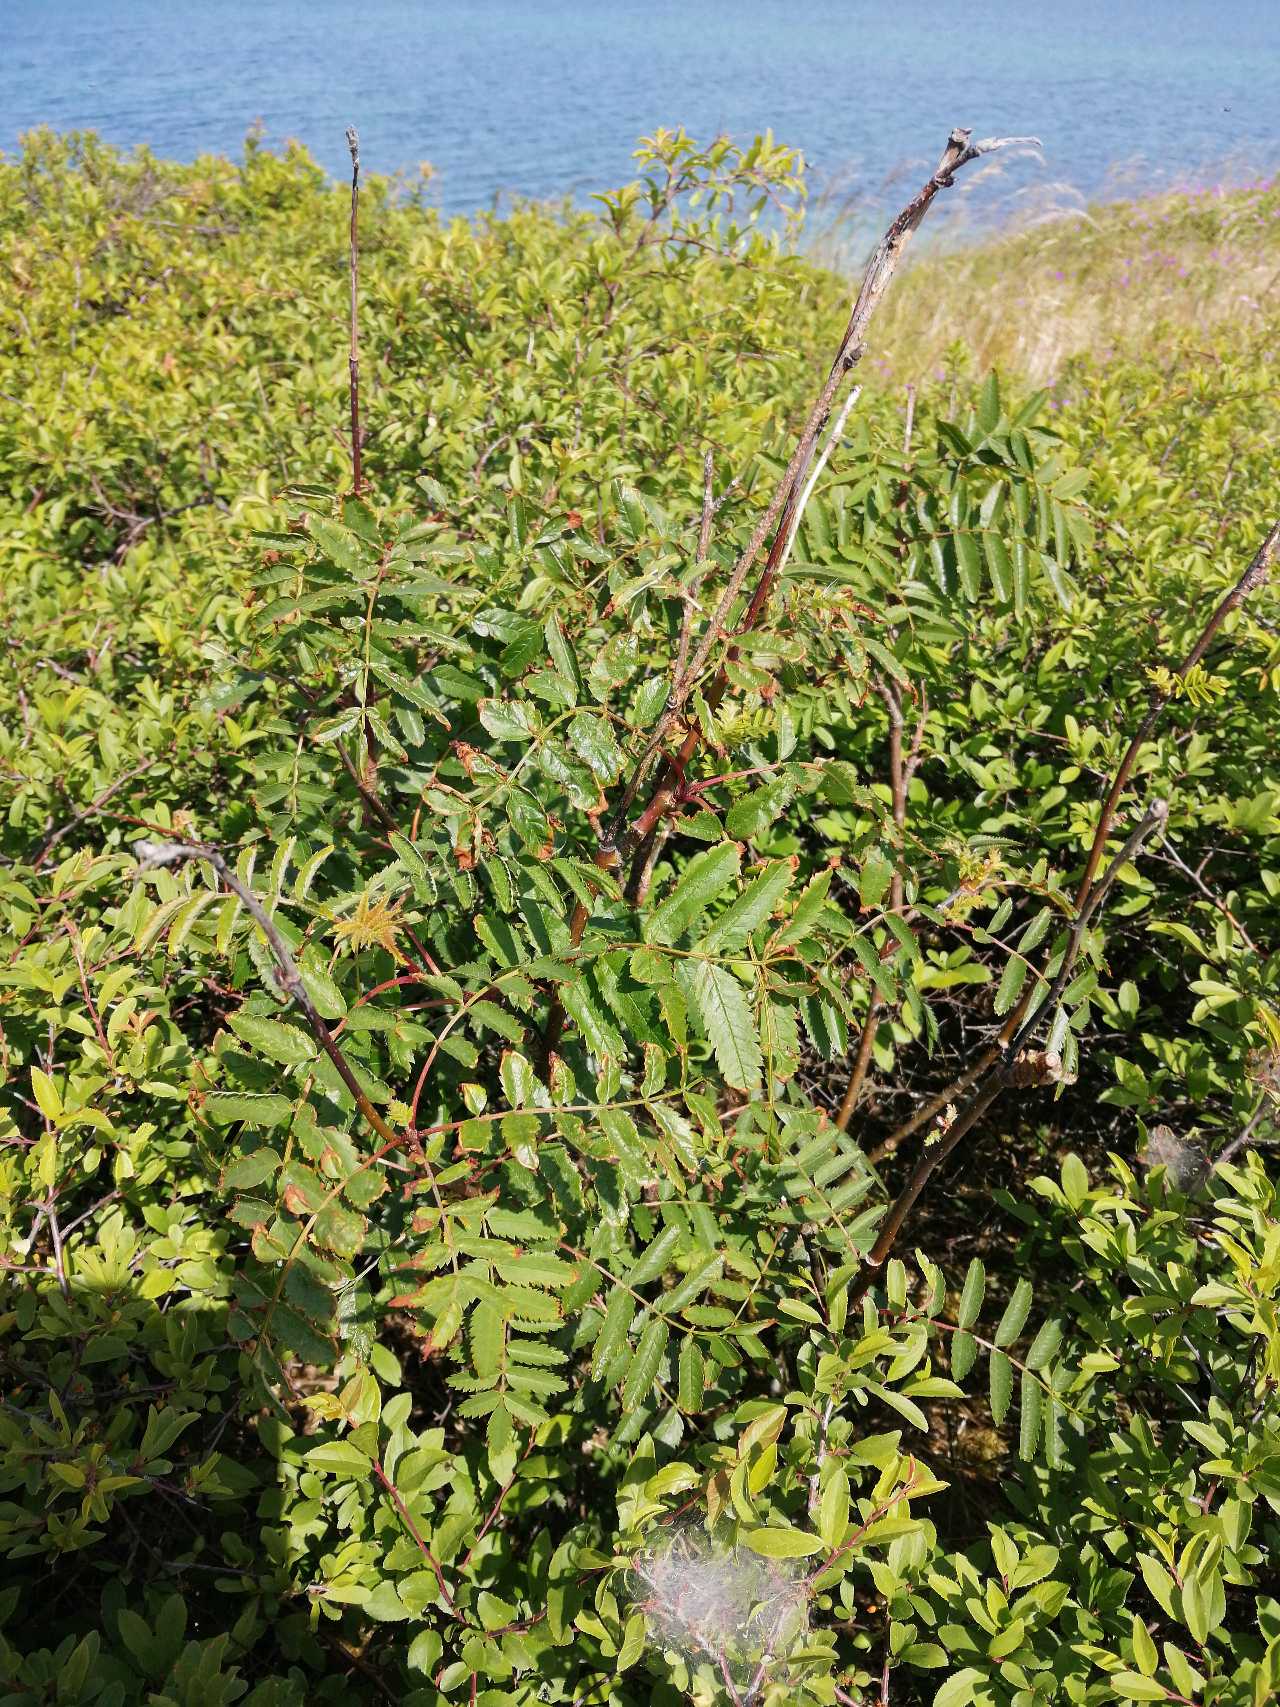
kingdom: Plantae
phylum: Tracheophyta
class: Magnoliopsida
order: Rosales
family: Rosaceae
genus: Sorbus
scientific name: Sorbus aucuparia
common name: Almindelig røn
